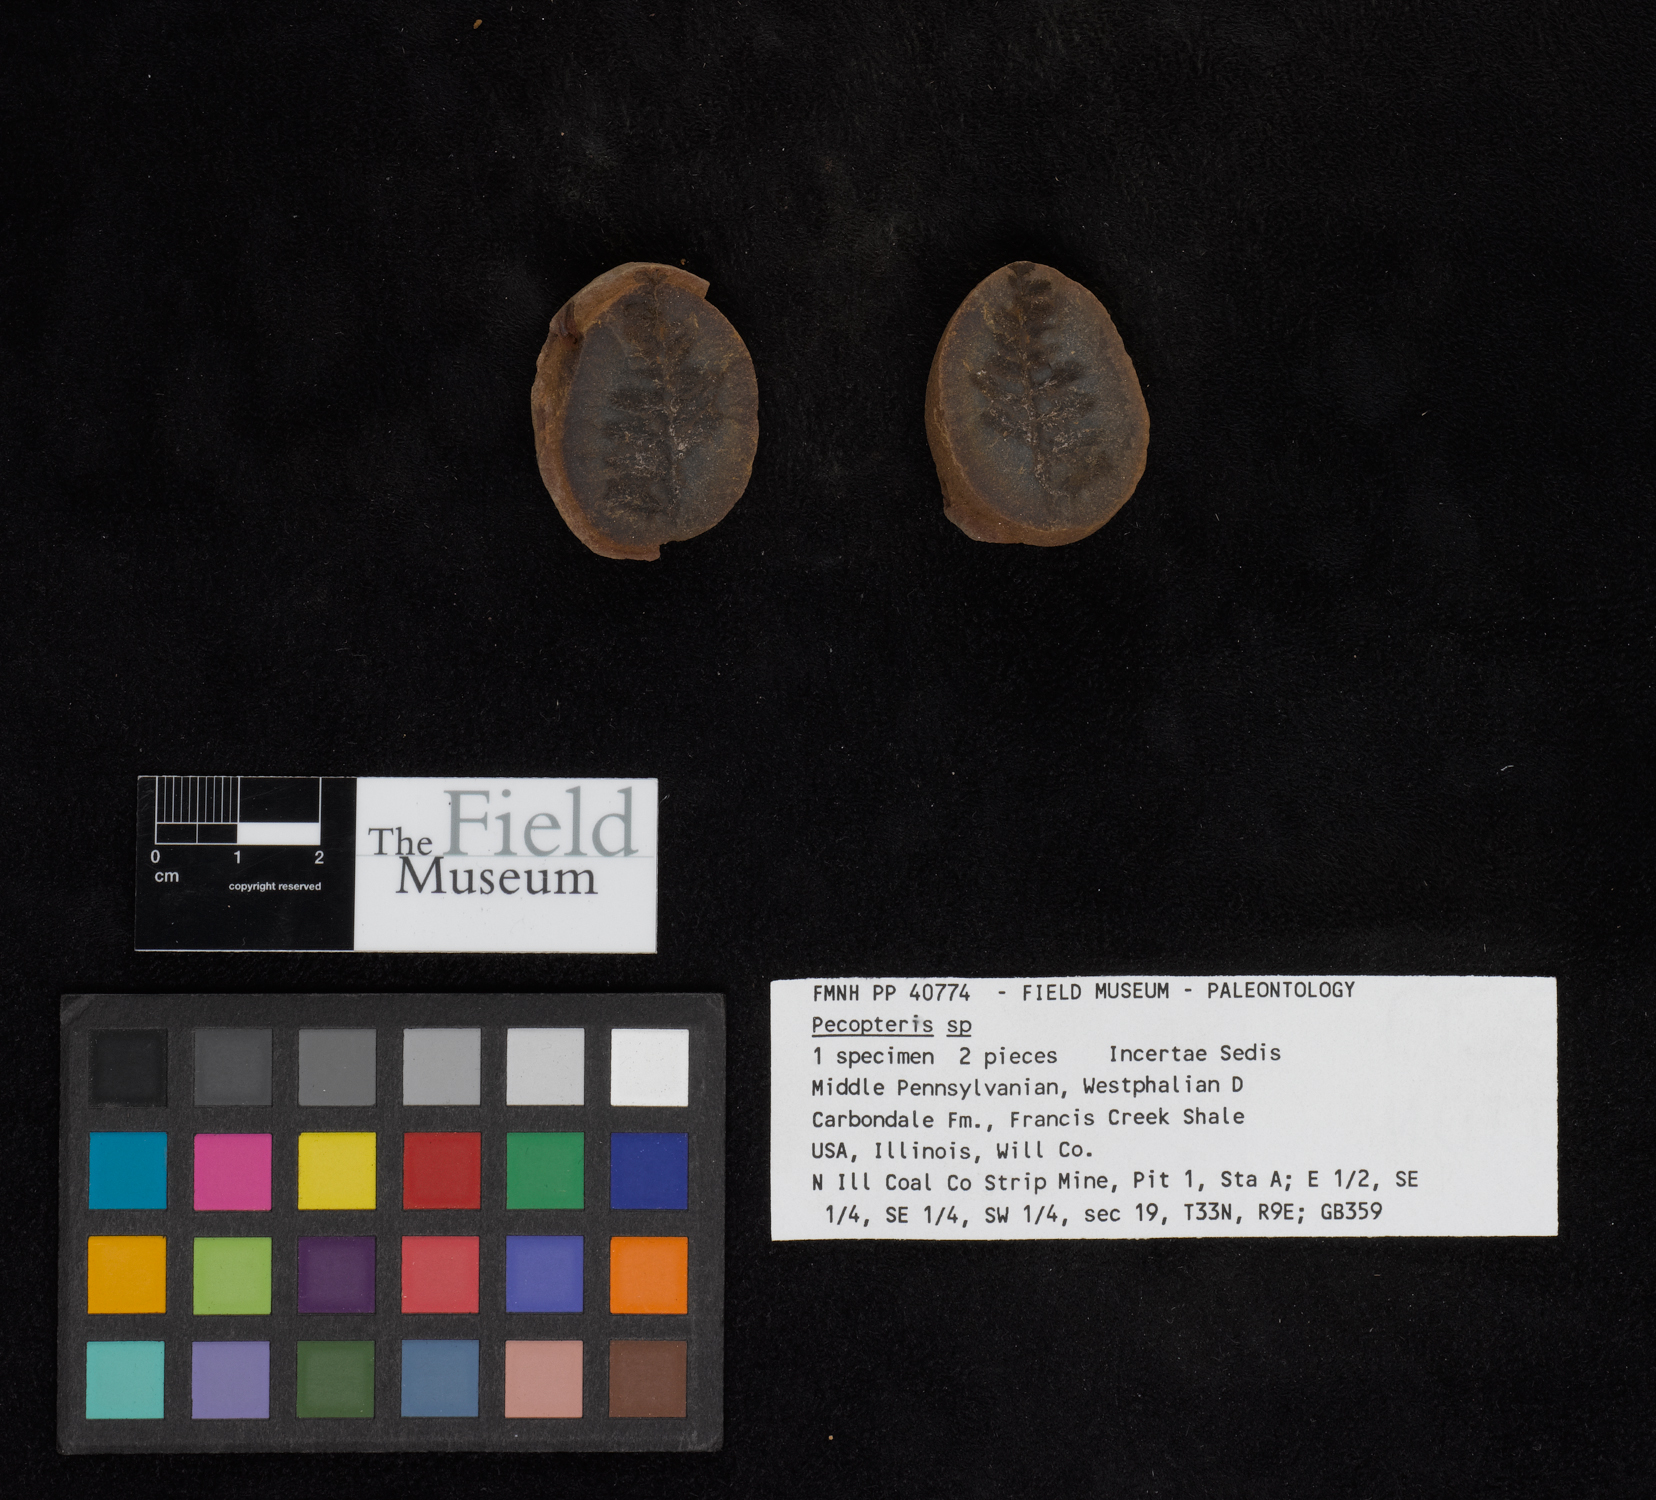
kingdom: Plantae
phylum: Tracheophyta
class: Polypodiopsida
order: Marattiales
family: Asterothecaceae
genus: Pecopteris
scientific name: Pecopteris
